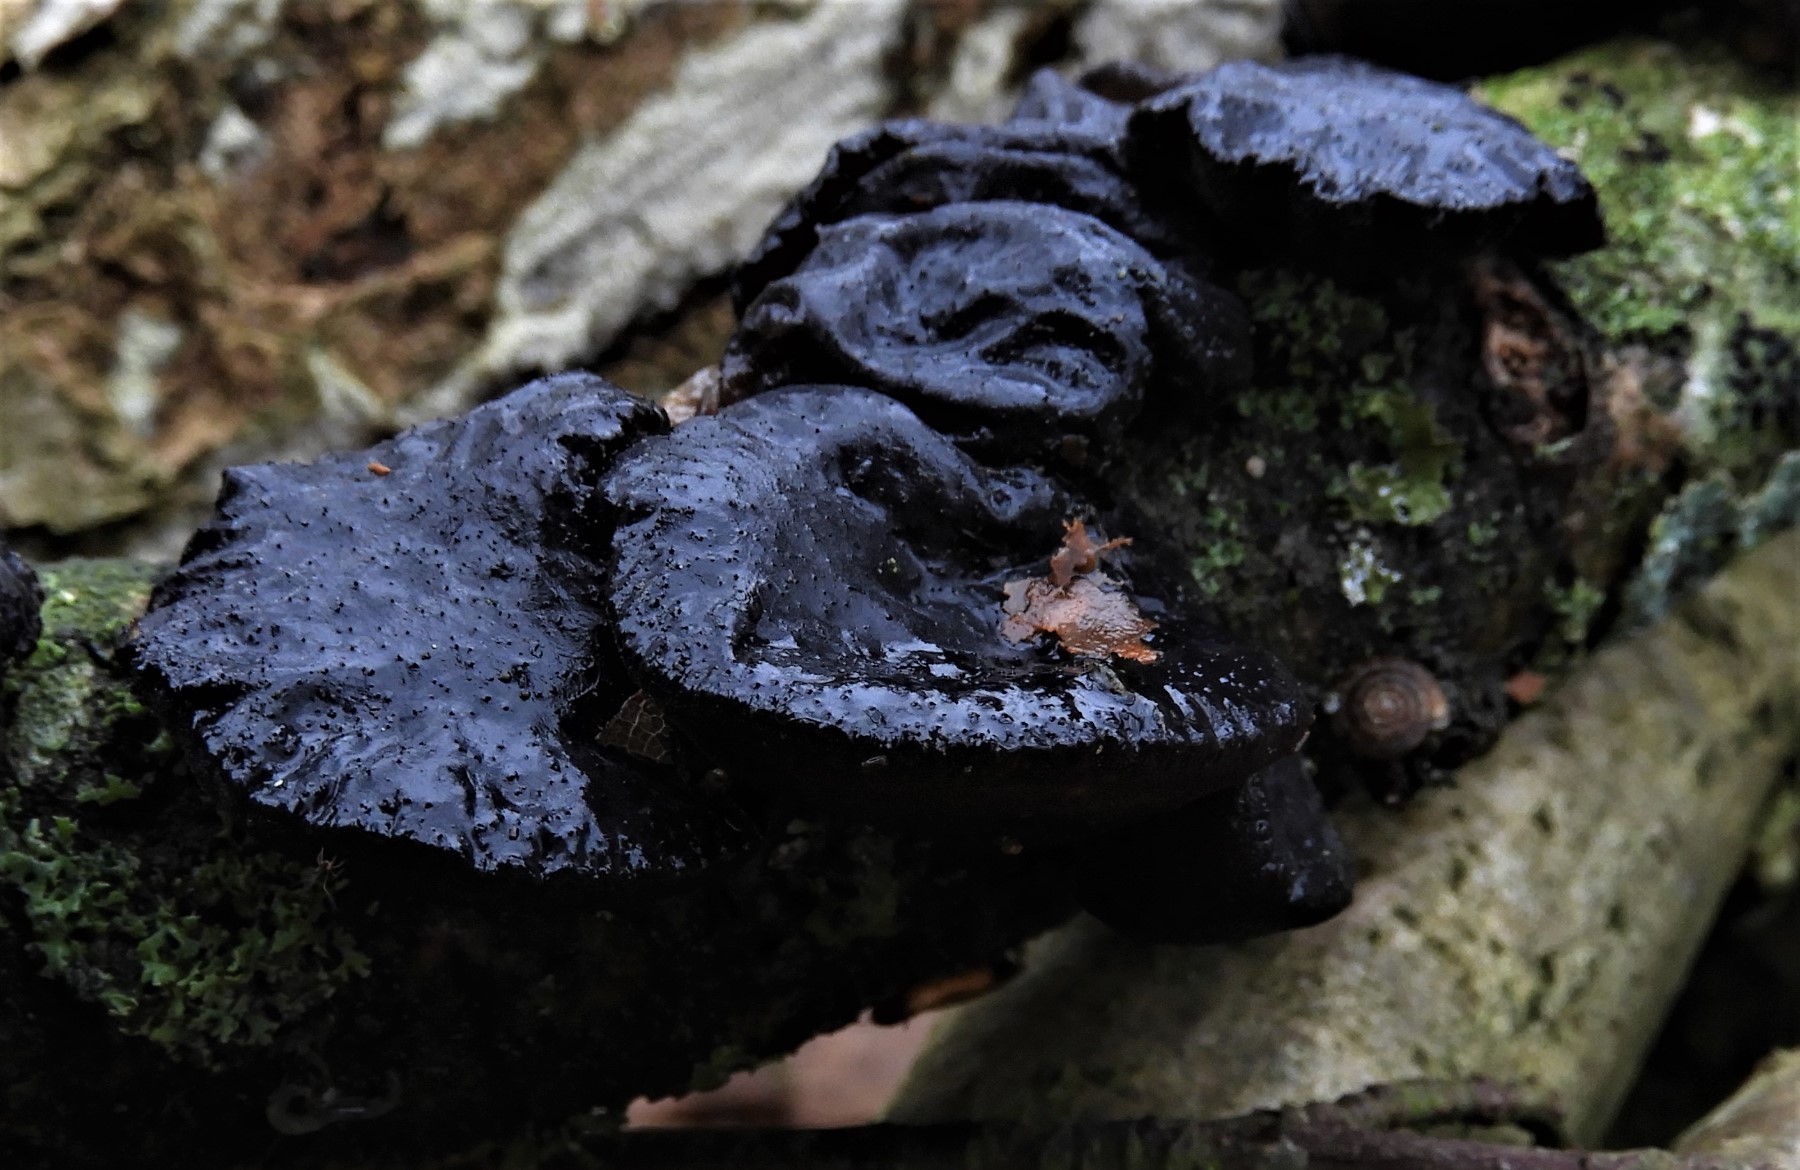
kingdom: Fungi
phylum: Basidiomycota
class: Agaricomycetes
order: Auriculariales
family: Auriculariaceae
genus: Exidia
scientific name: Exidia glandulosa
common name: ege-bævretop
